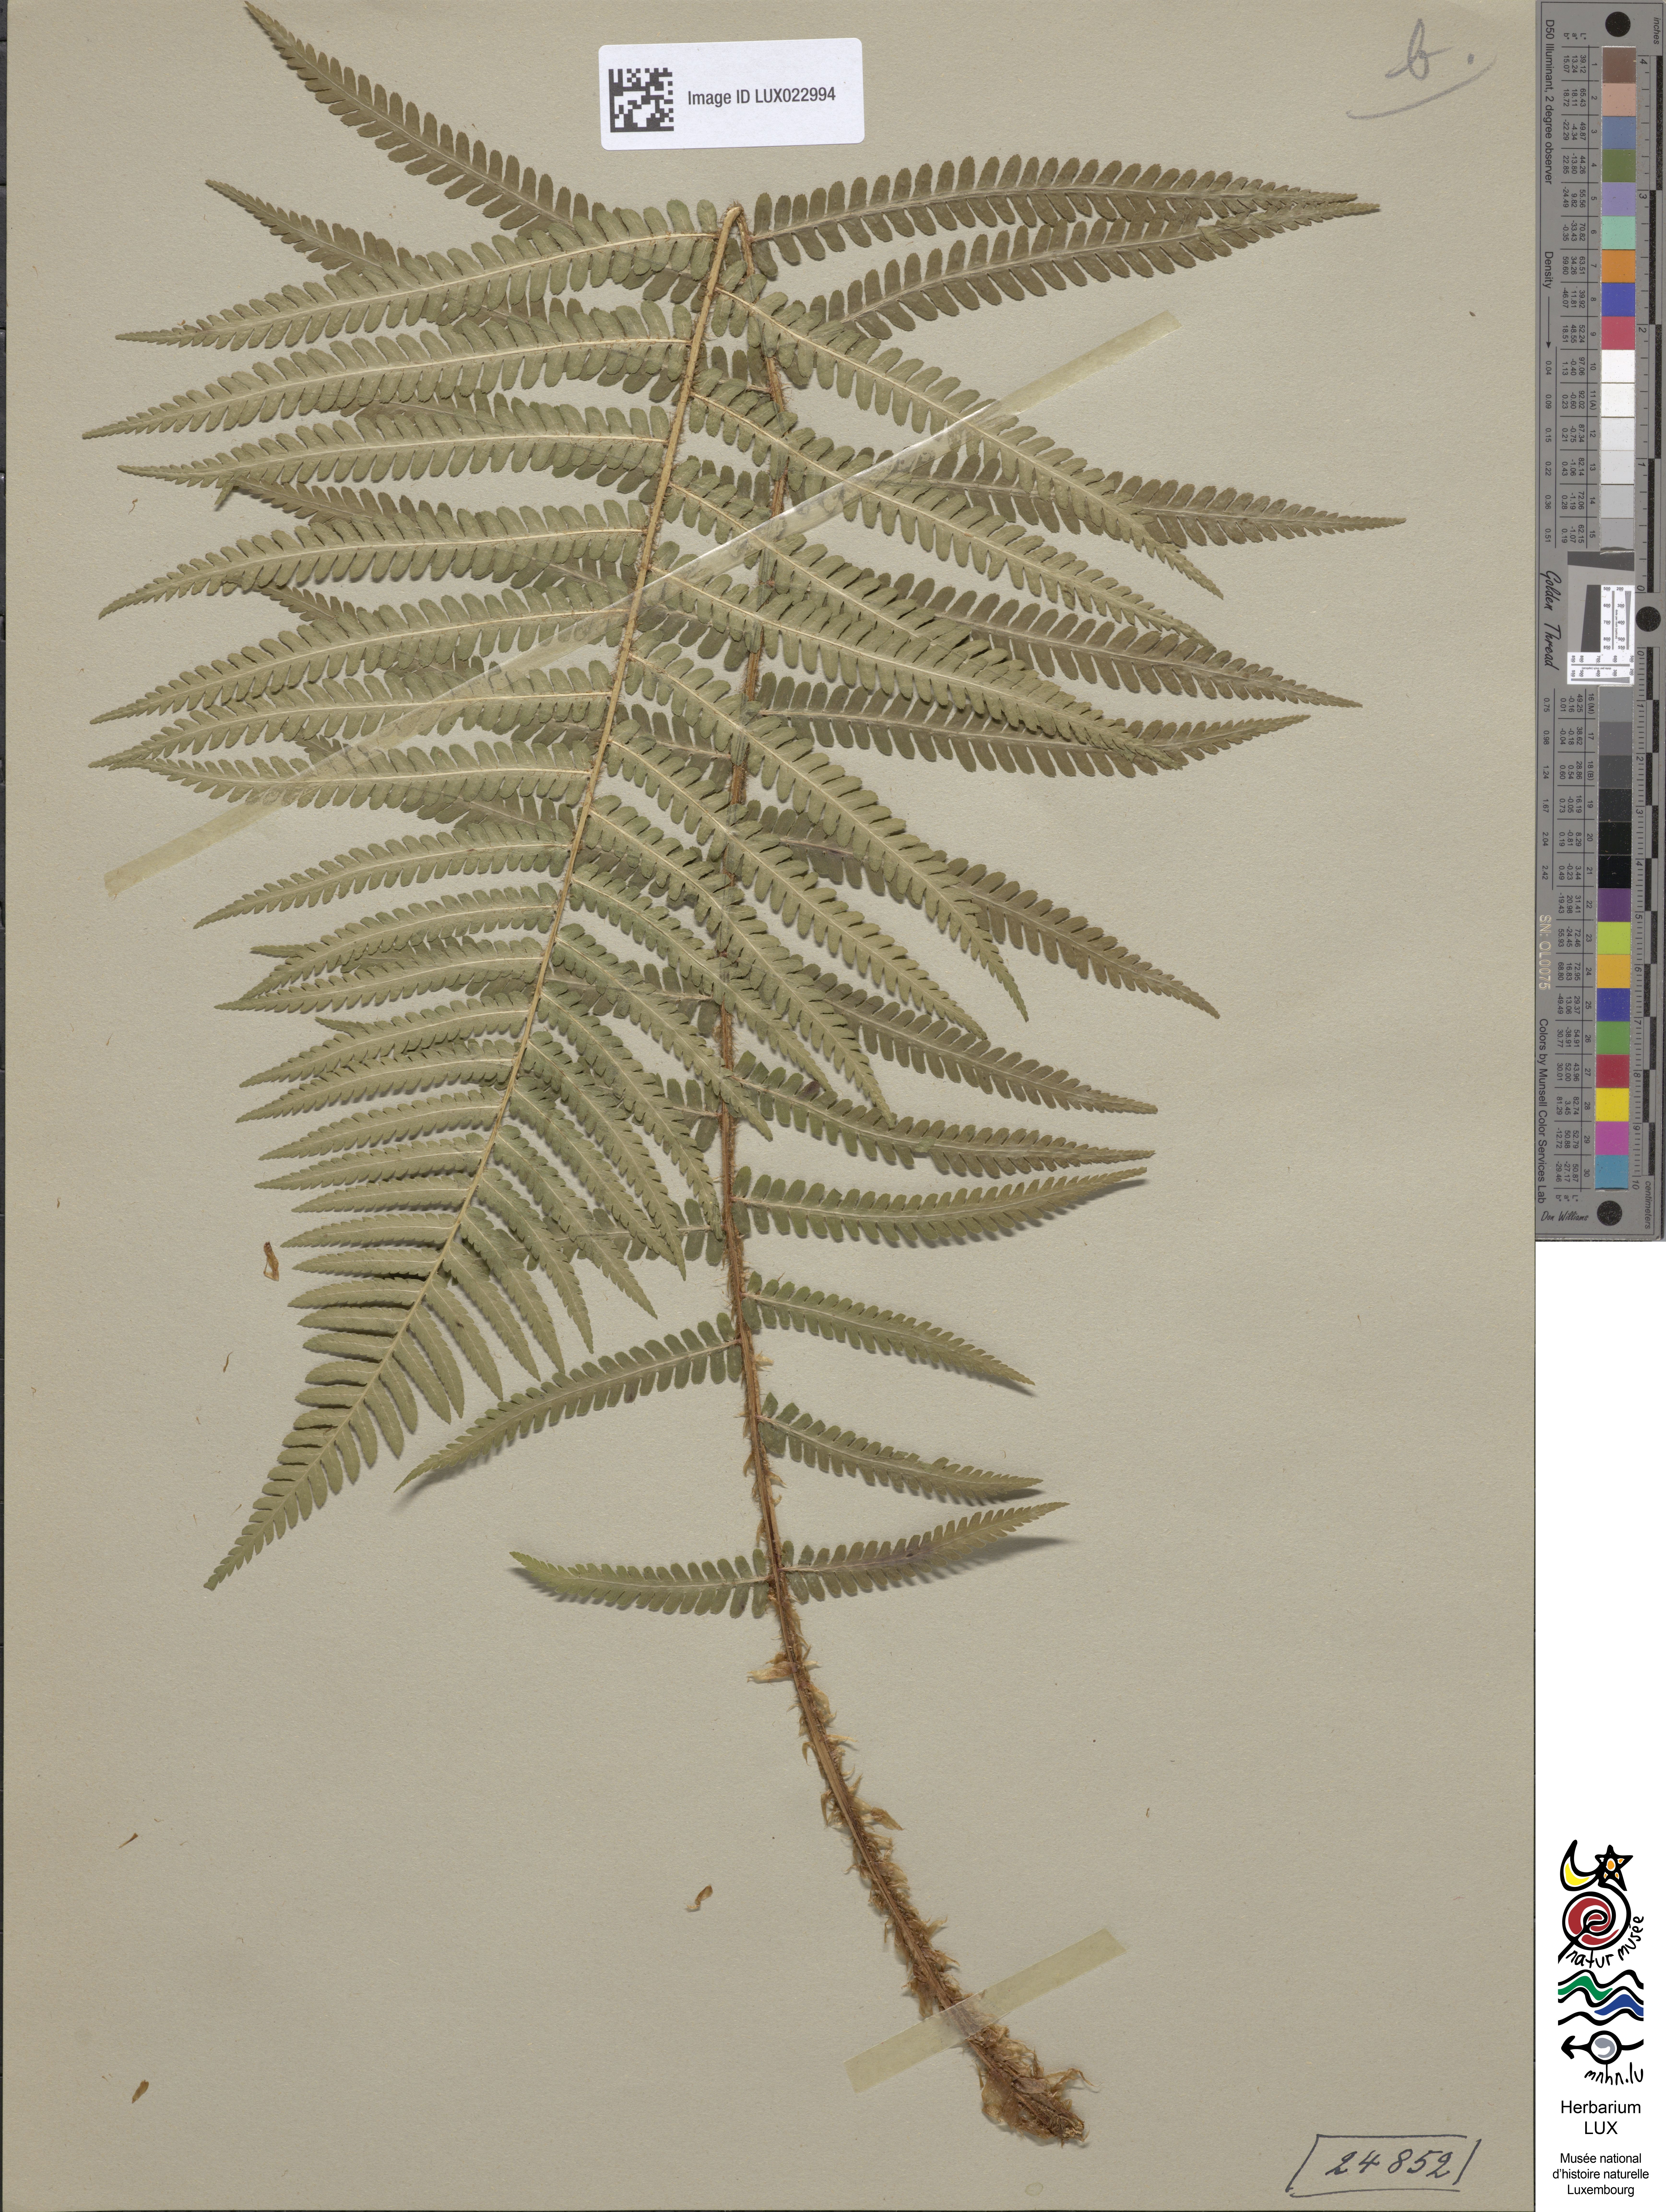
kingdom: Plantae
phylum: Tracheophyta
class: Polypodiopsida
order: Polypodiales
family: Dryopteridaceae
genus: Dryopteris
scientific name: Dryopteris filix-mas
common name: Male fern
